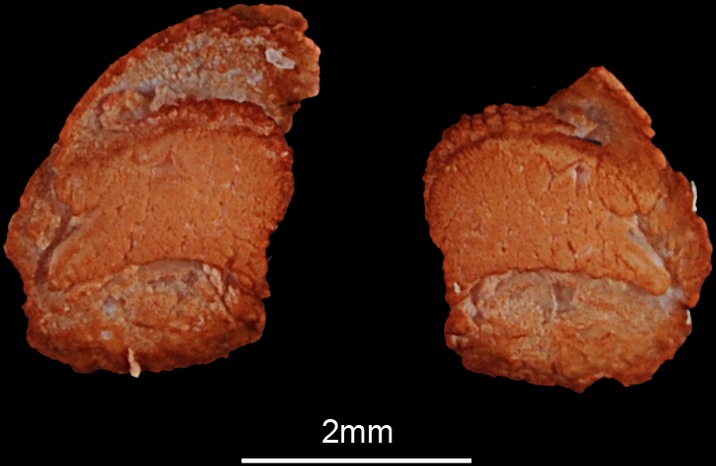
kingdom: Animalia
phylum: Chordata
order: Siluriformes
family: Mochokidae
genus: Synodontis
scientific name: Synodontis schall
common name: Wahrindi
